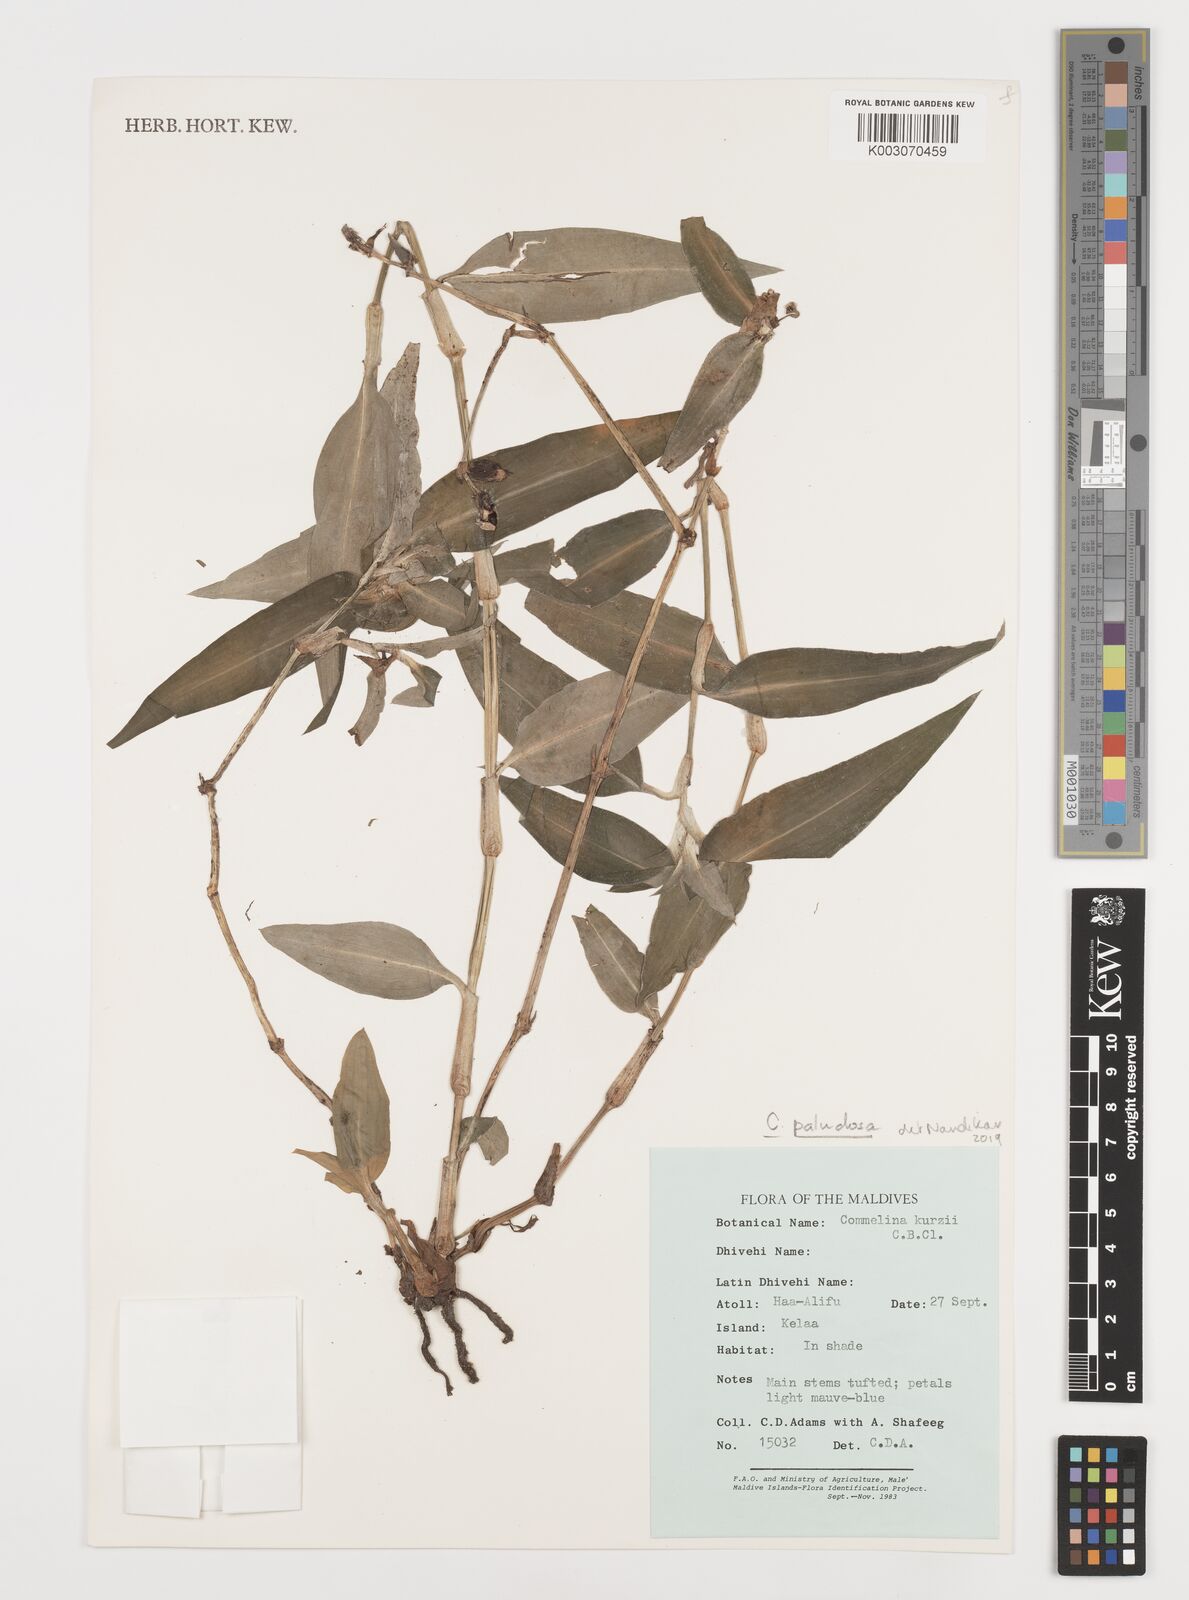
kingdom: Plantae
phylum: Tracheophyta
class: Liliopsida
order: Commelinales
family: Commelinaceae
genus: Commelina
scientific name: Commelina paludosa
